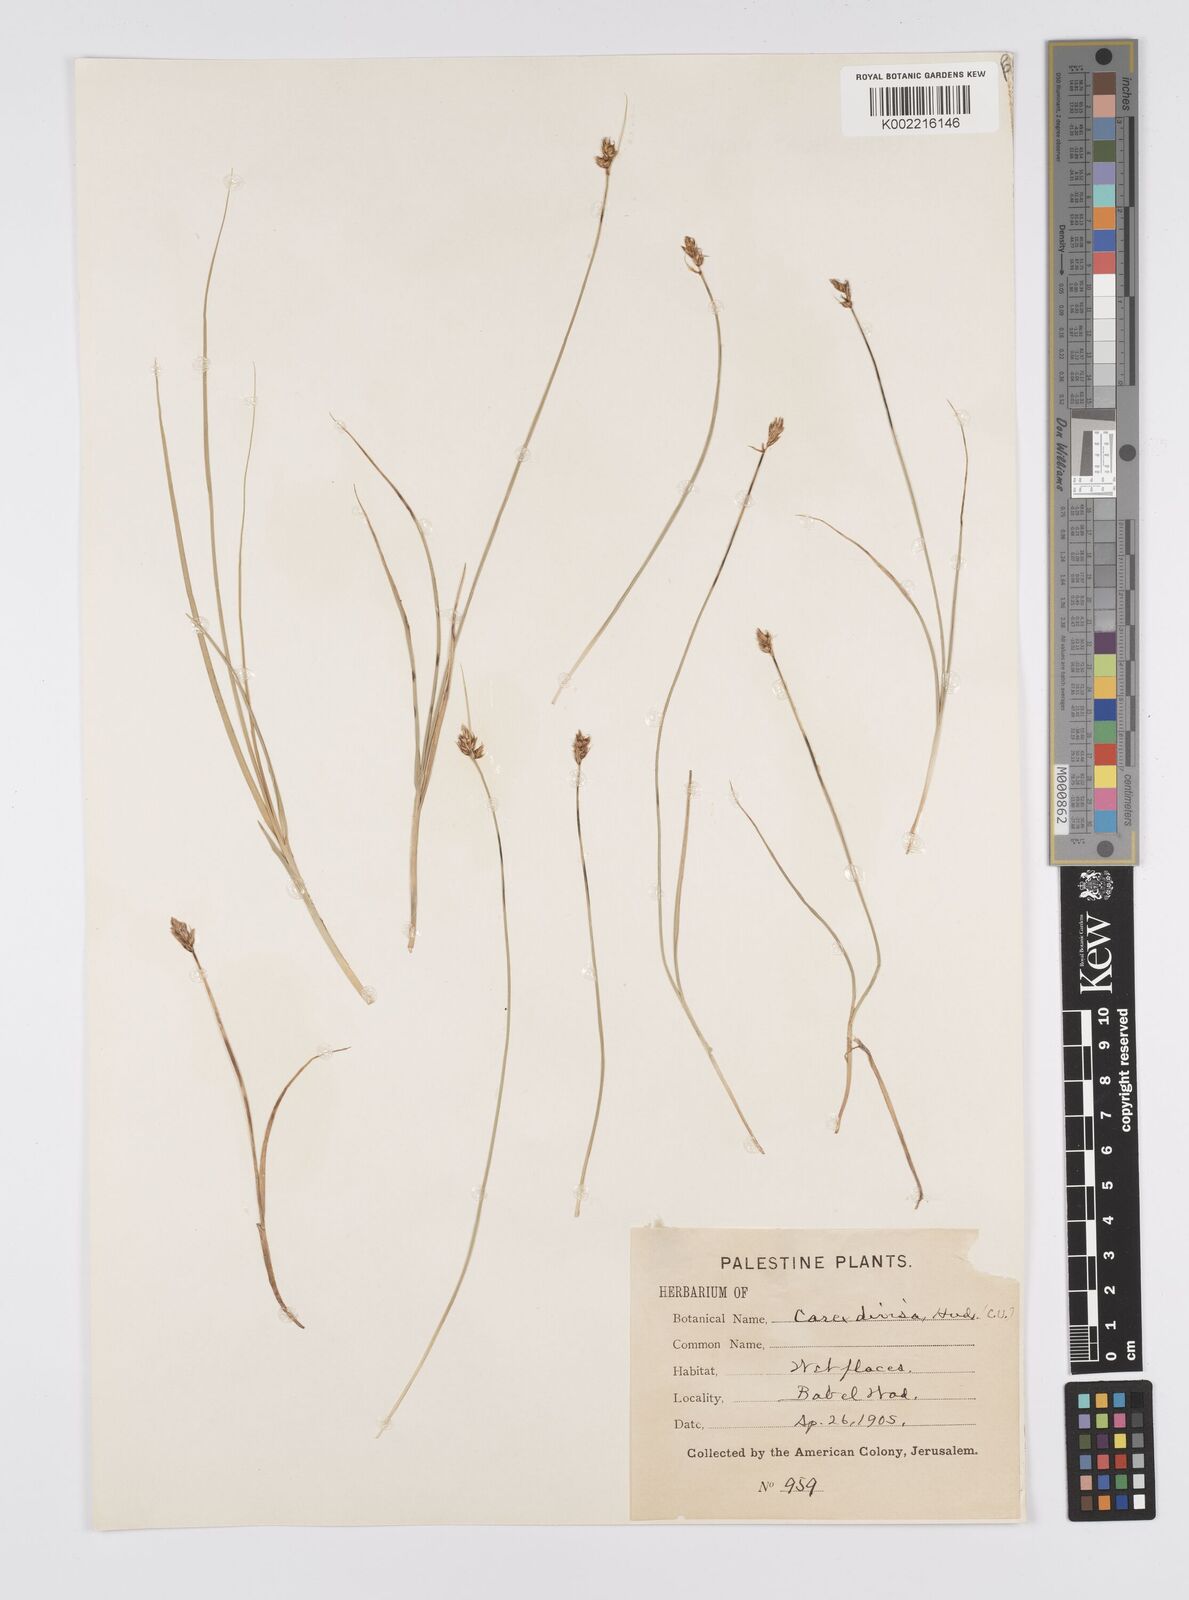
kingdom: Plantae
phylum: Tracheophyta
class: Liliopsida
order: Poales
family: Cyperaceae
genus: Carex
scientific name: Carex divisa
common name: Divided sedge
